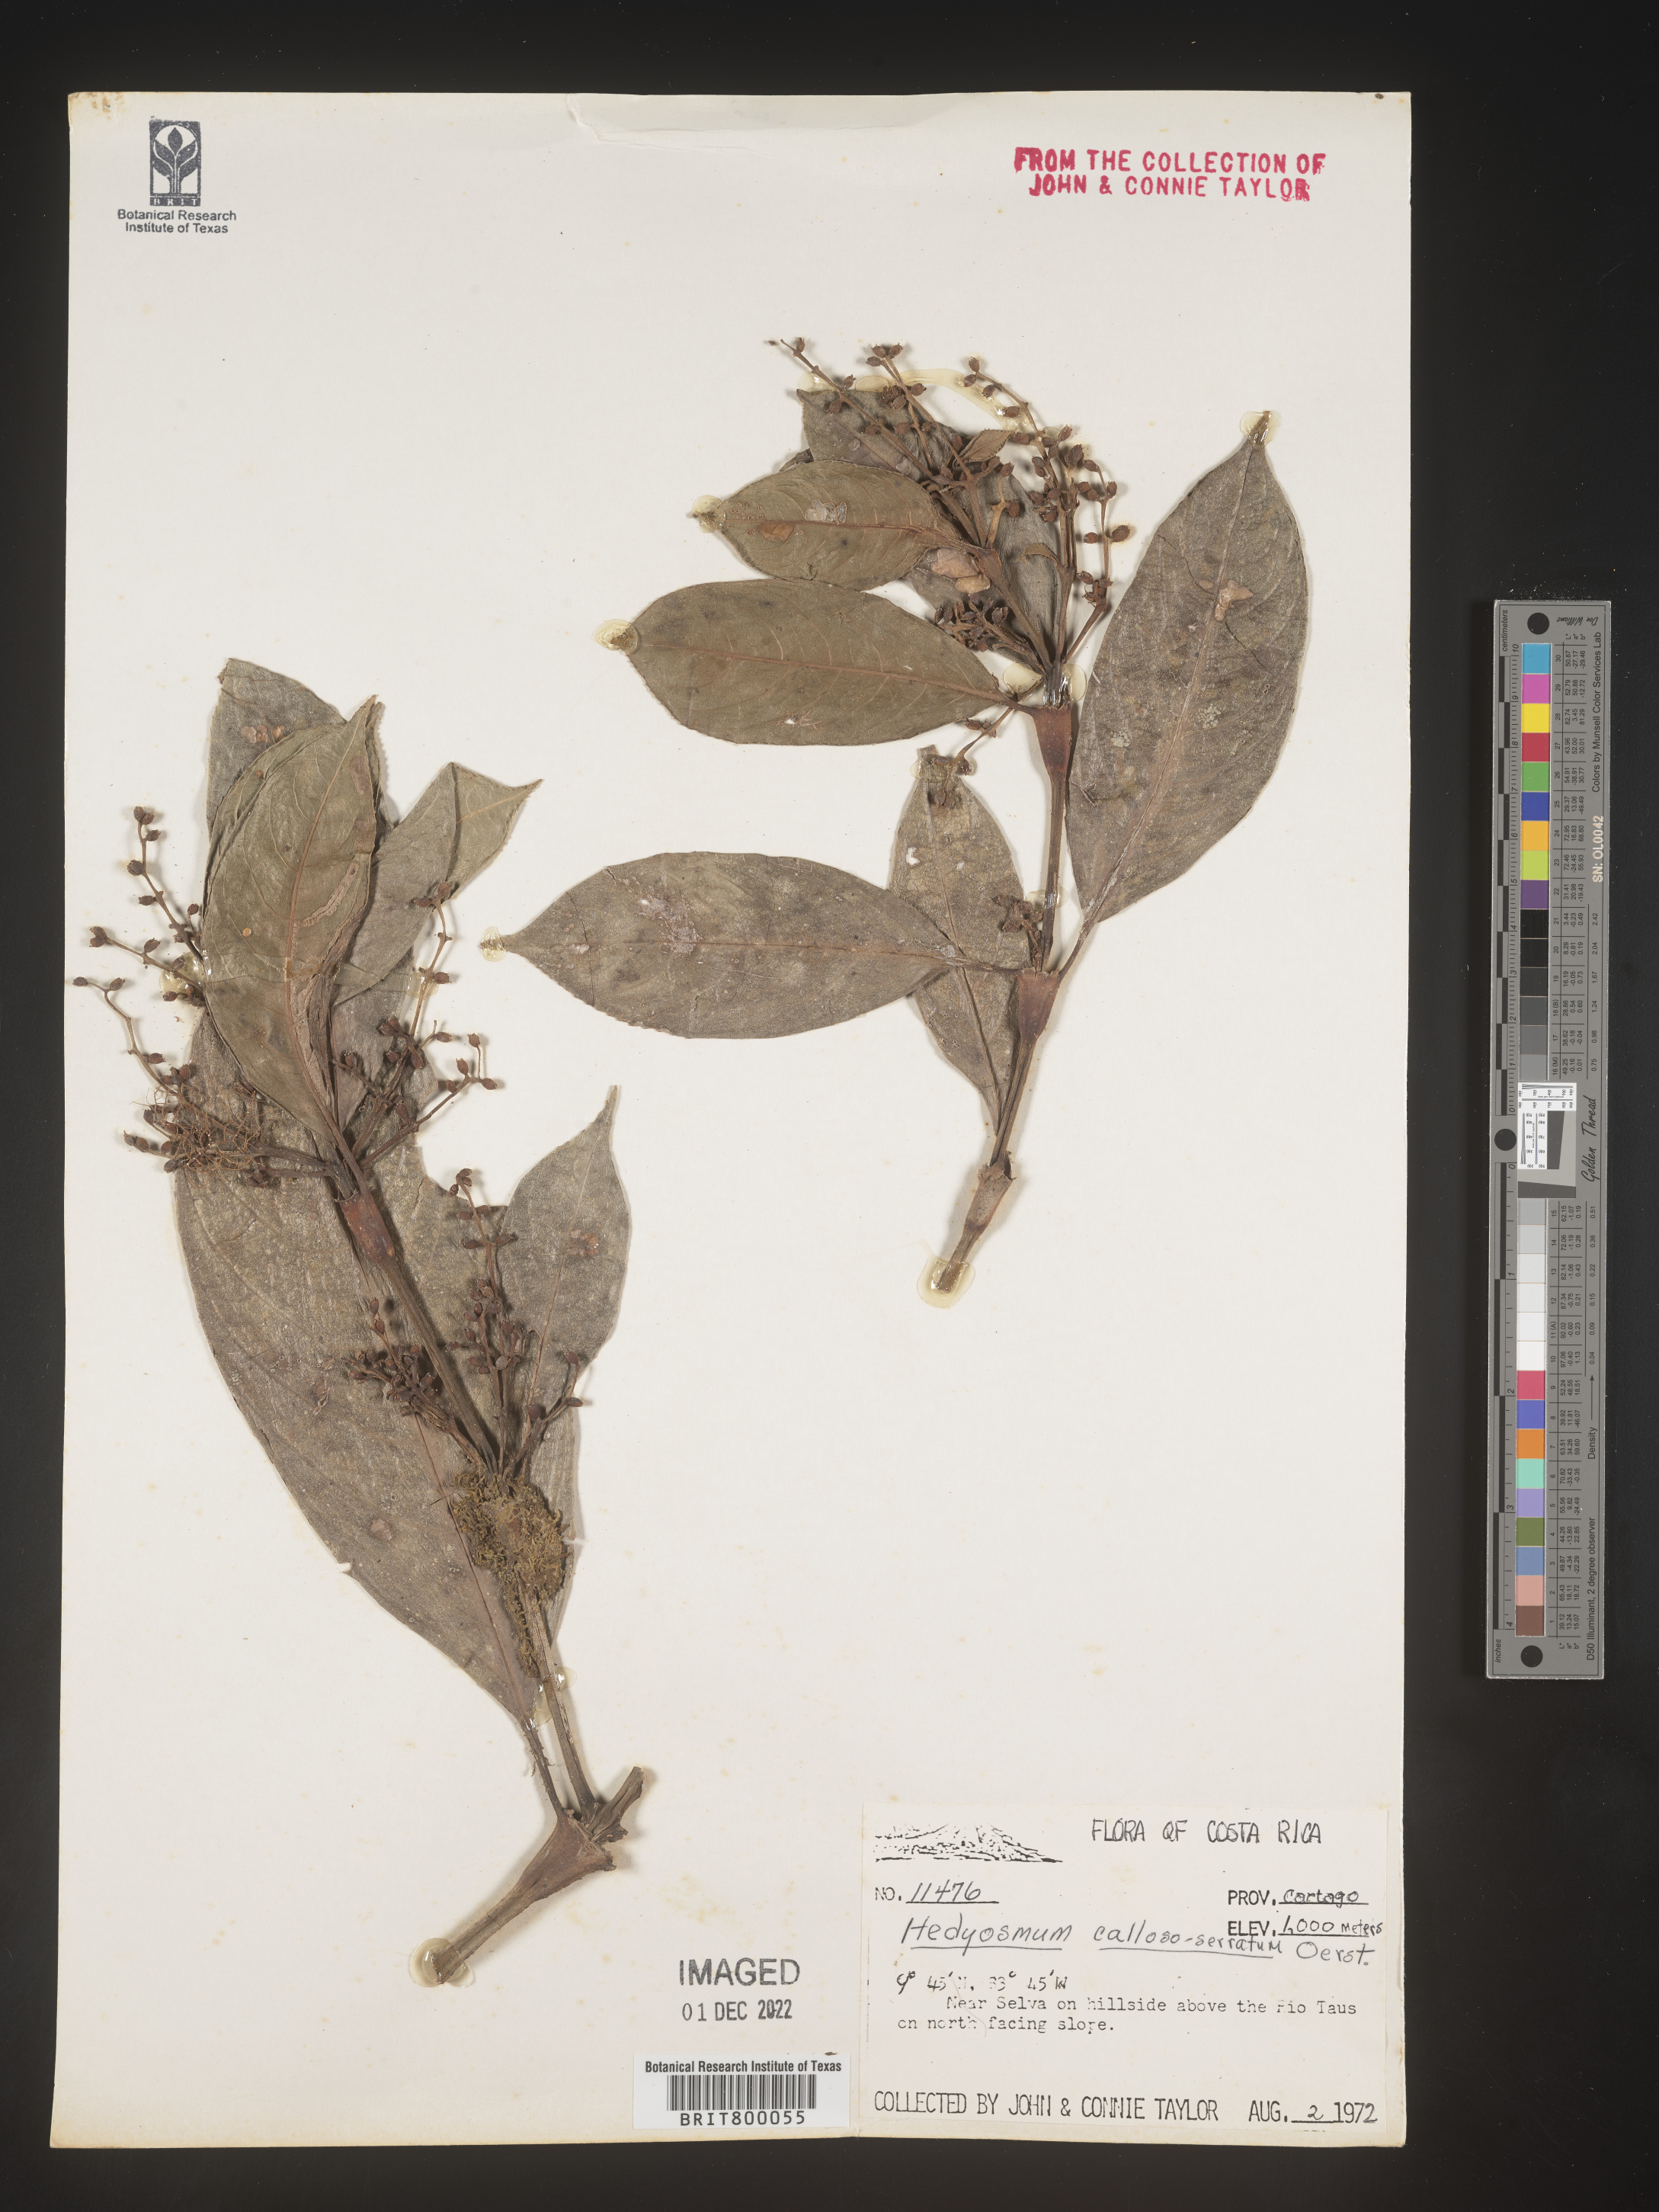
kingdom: Plantae
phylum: Tracheophyta
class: Magnoliopsida
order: Chloranthales
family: Chloranthaceae
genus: Hedyosmum
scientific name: Hedyosmum
